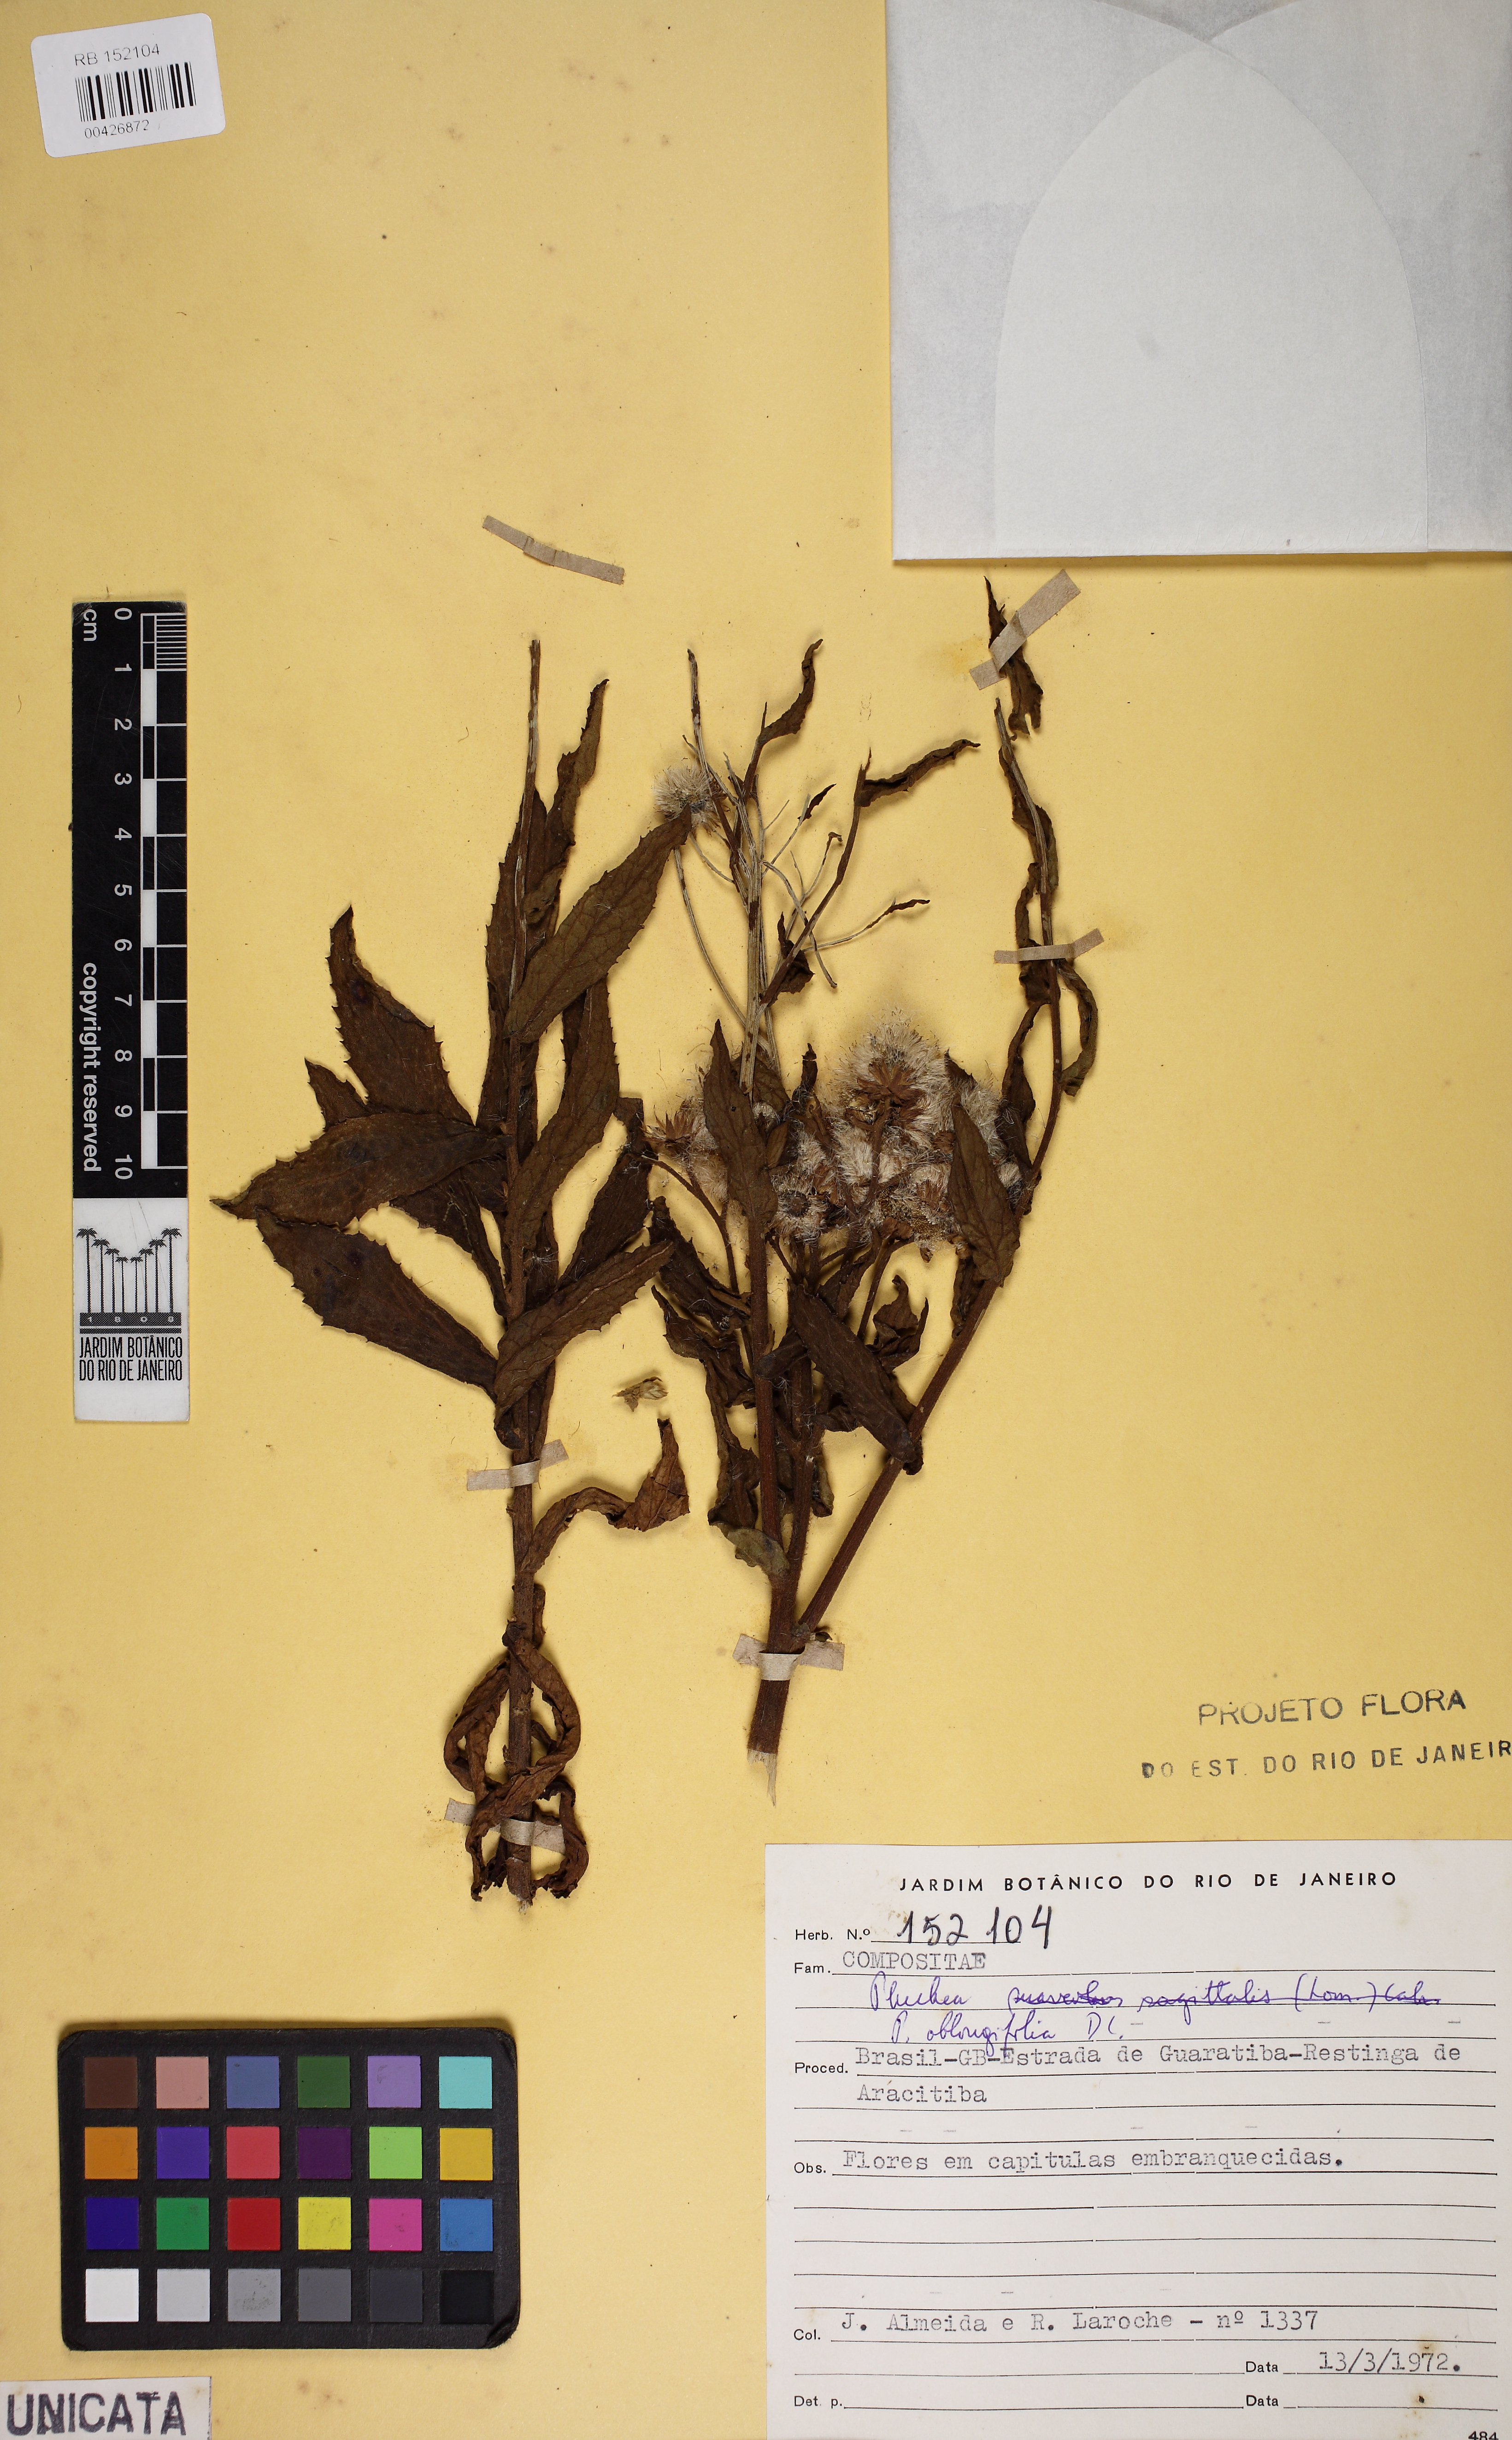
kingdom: Plantae
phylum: Tracheophyta
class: Magnoliopsida
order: Asterales
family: Asteraceae
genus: Pluchea
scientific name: Pluchea oblongifolia
